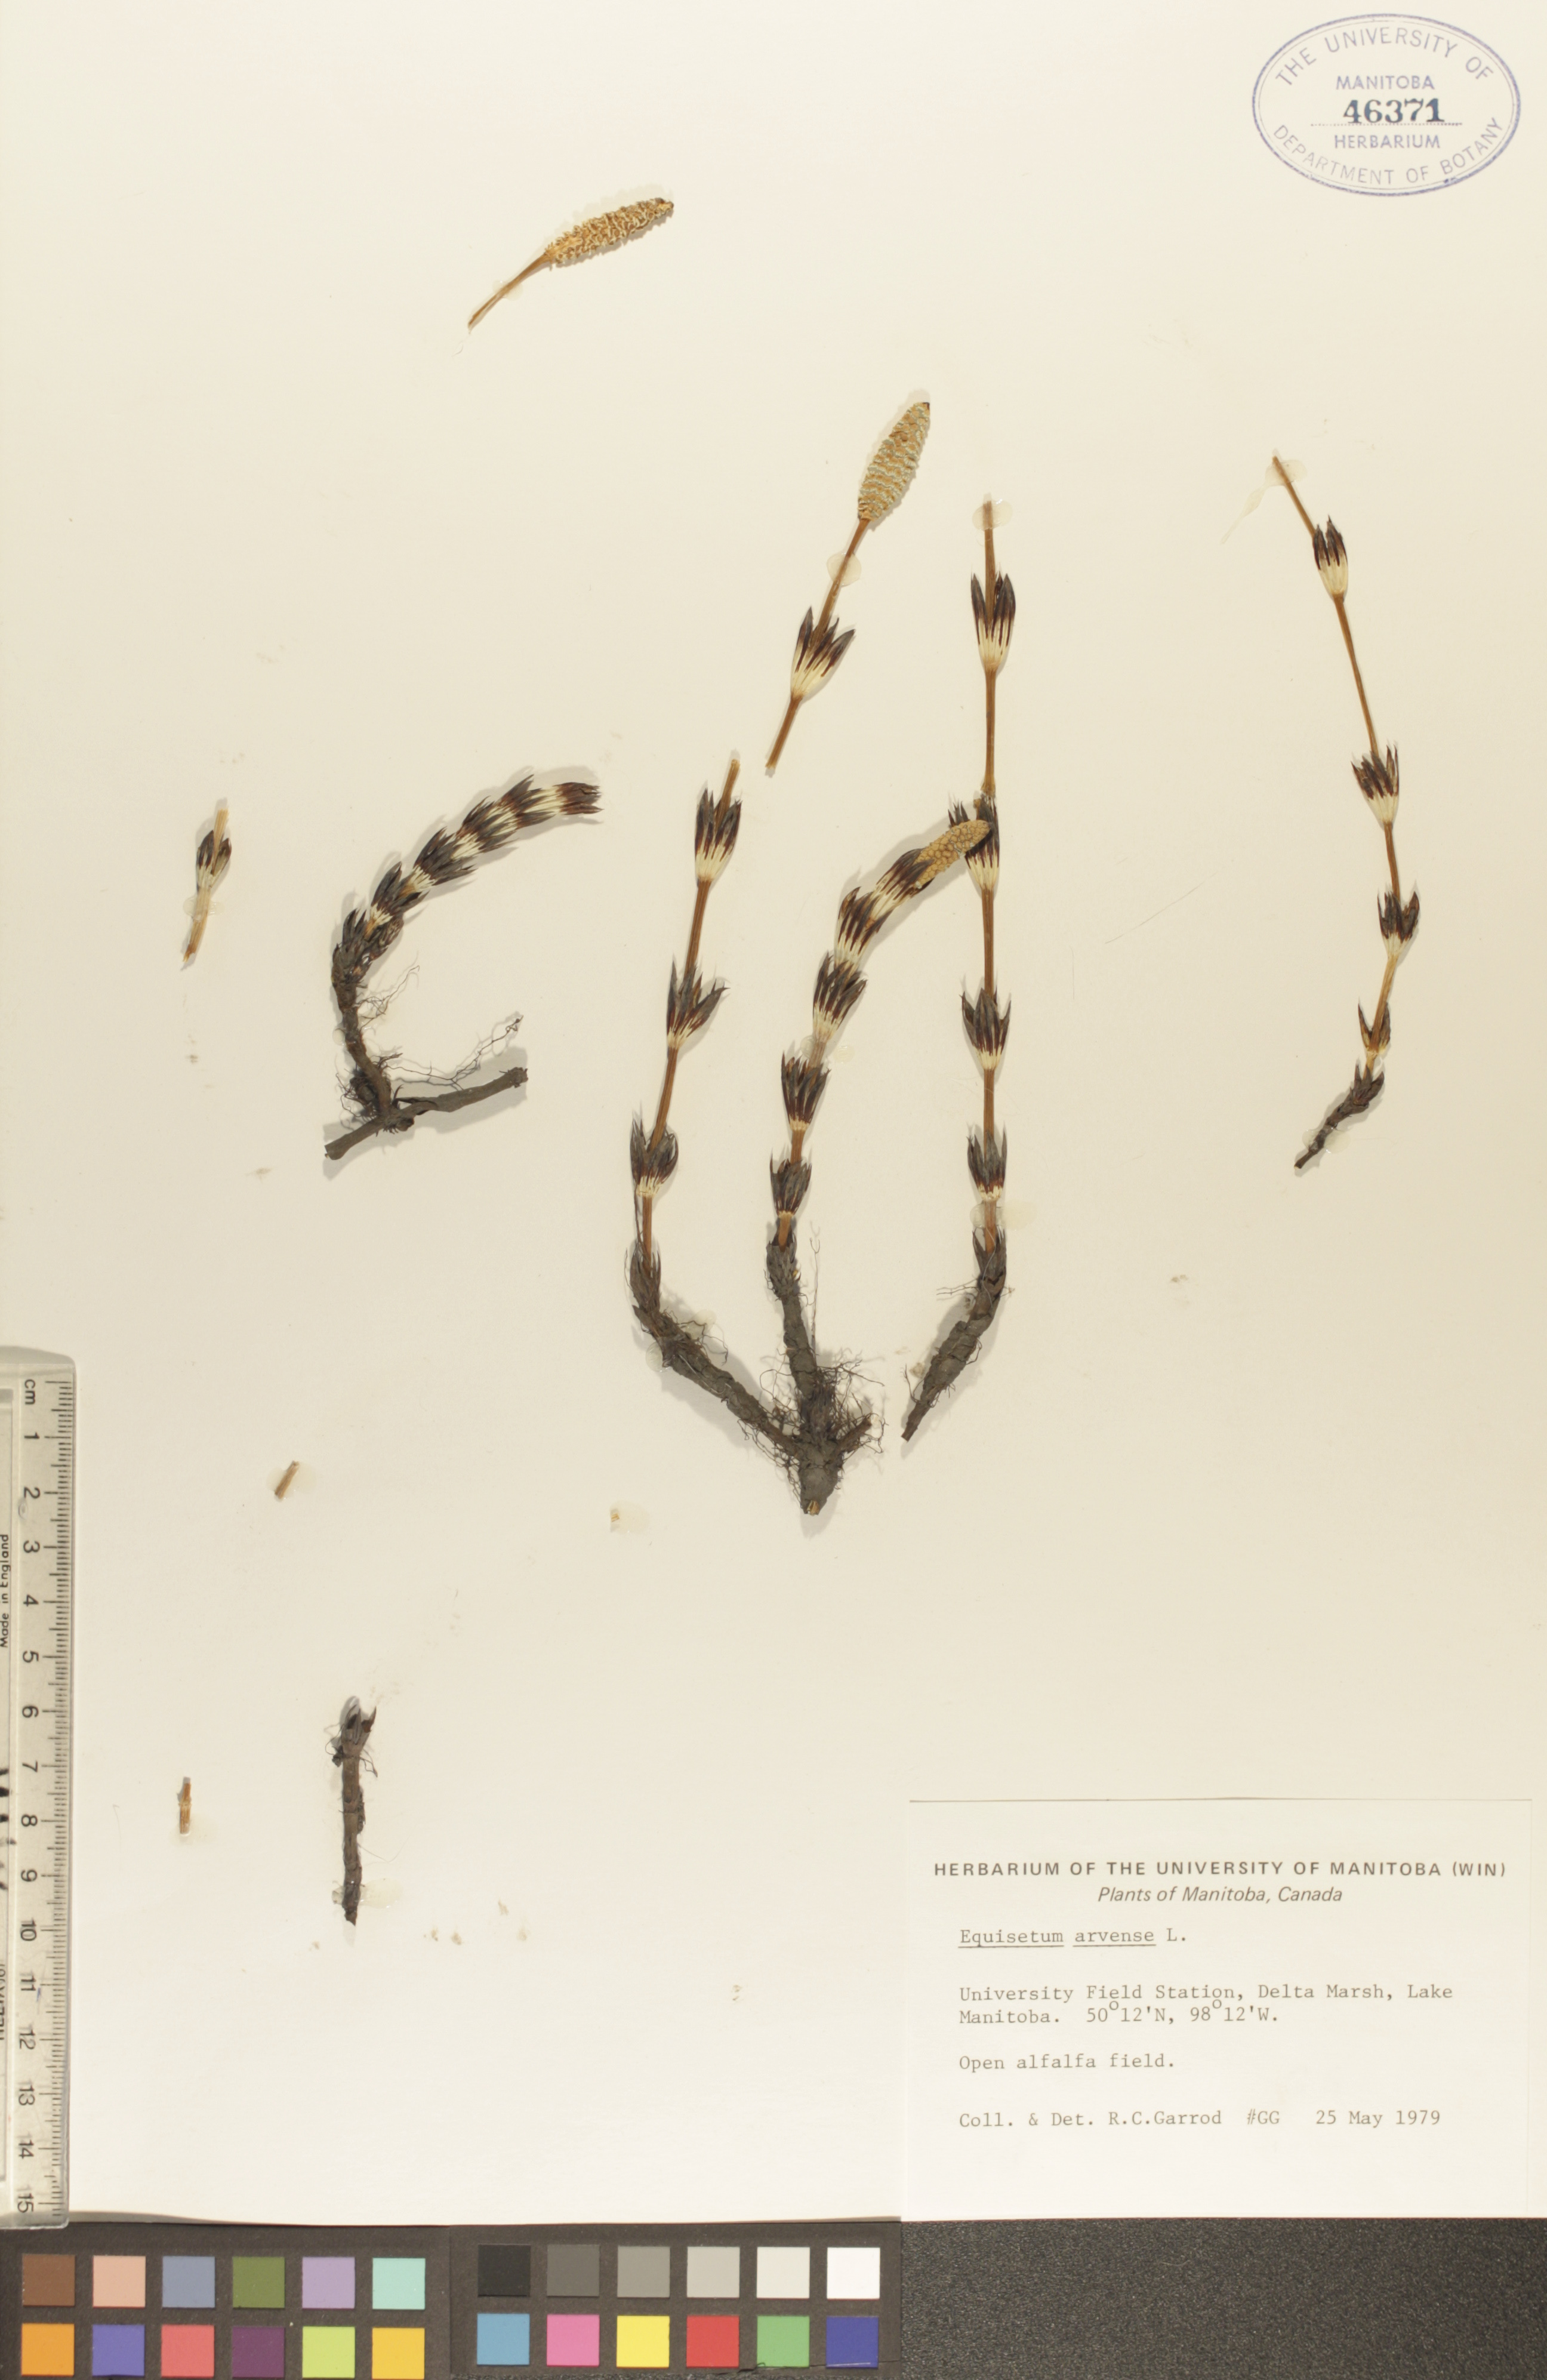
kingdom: Plantae
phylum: Tracheophyta
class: Polypodiopsida
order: Equisetales
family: Equisetaceae
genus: Equisetum
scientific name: Equisetum arvense
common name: Field horsetail
